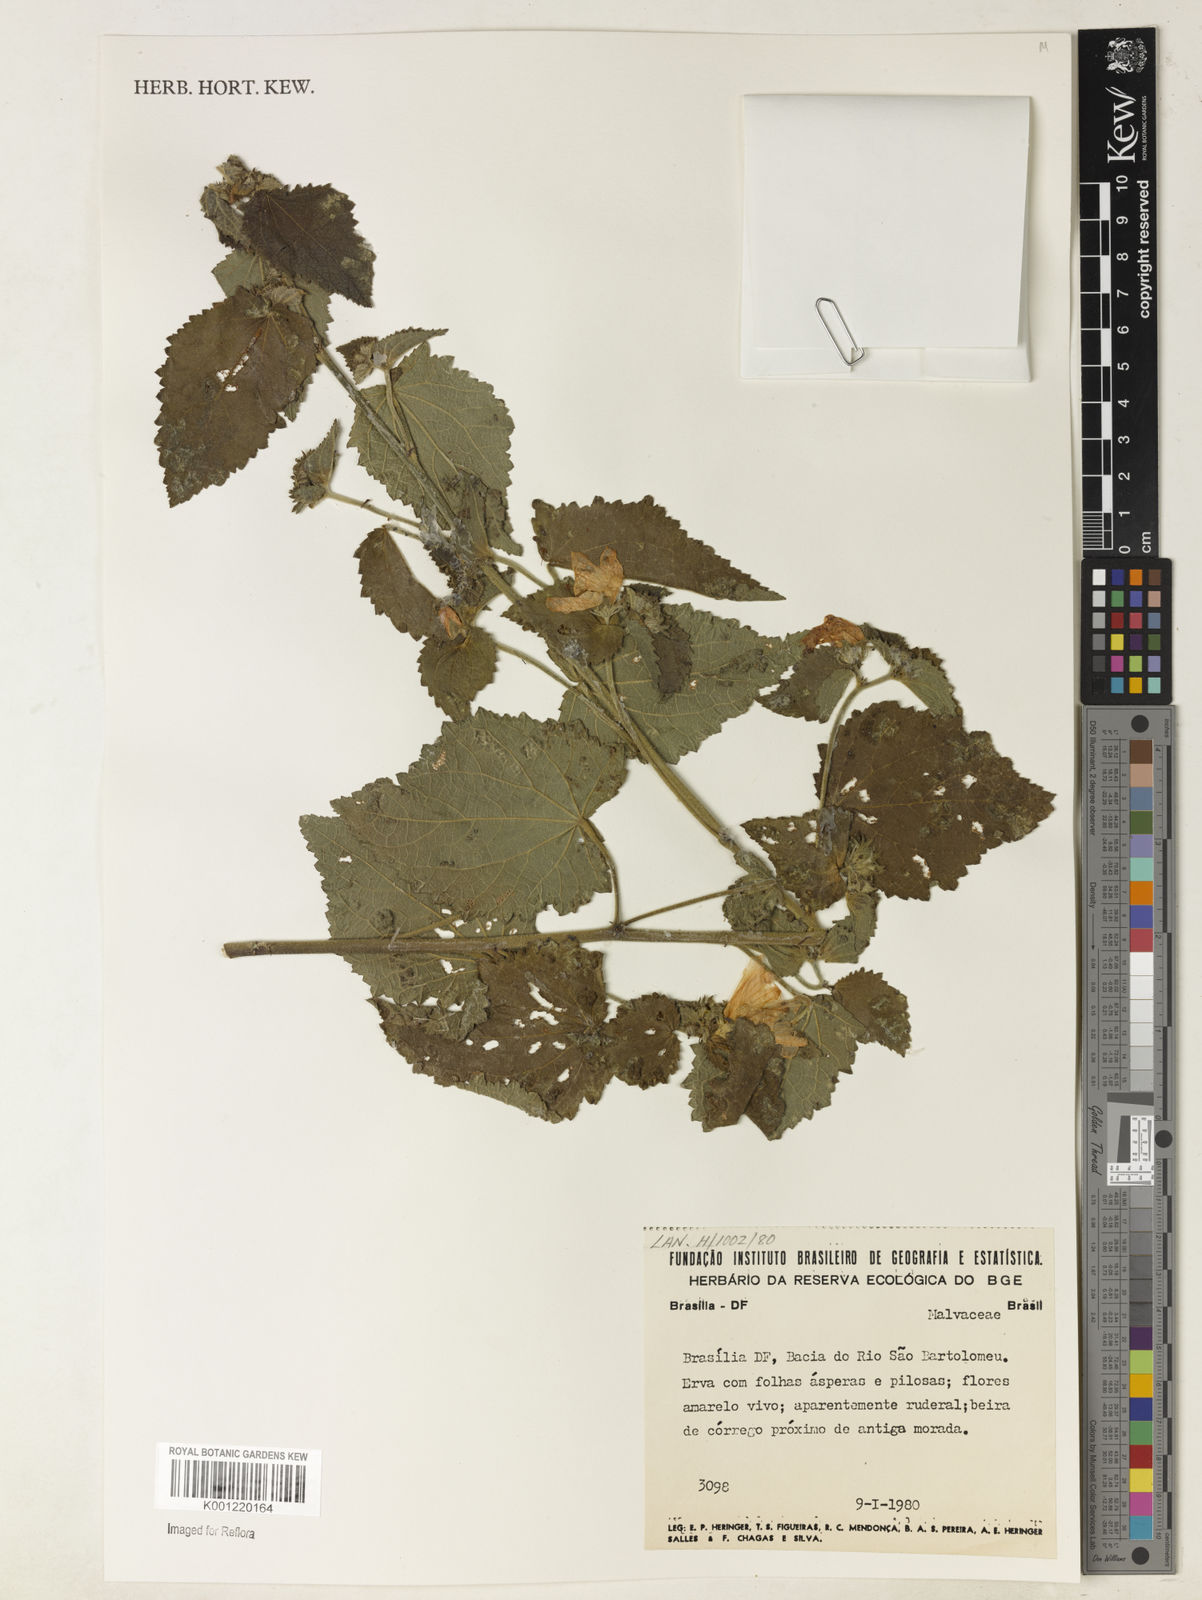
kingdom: Plantae
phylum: Tracheophyta
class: Magnoliopsida
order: Malvales
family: Malvaceae
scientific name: Malvaceae
